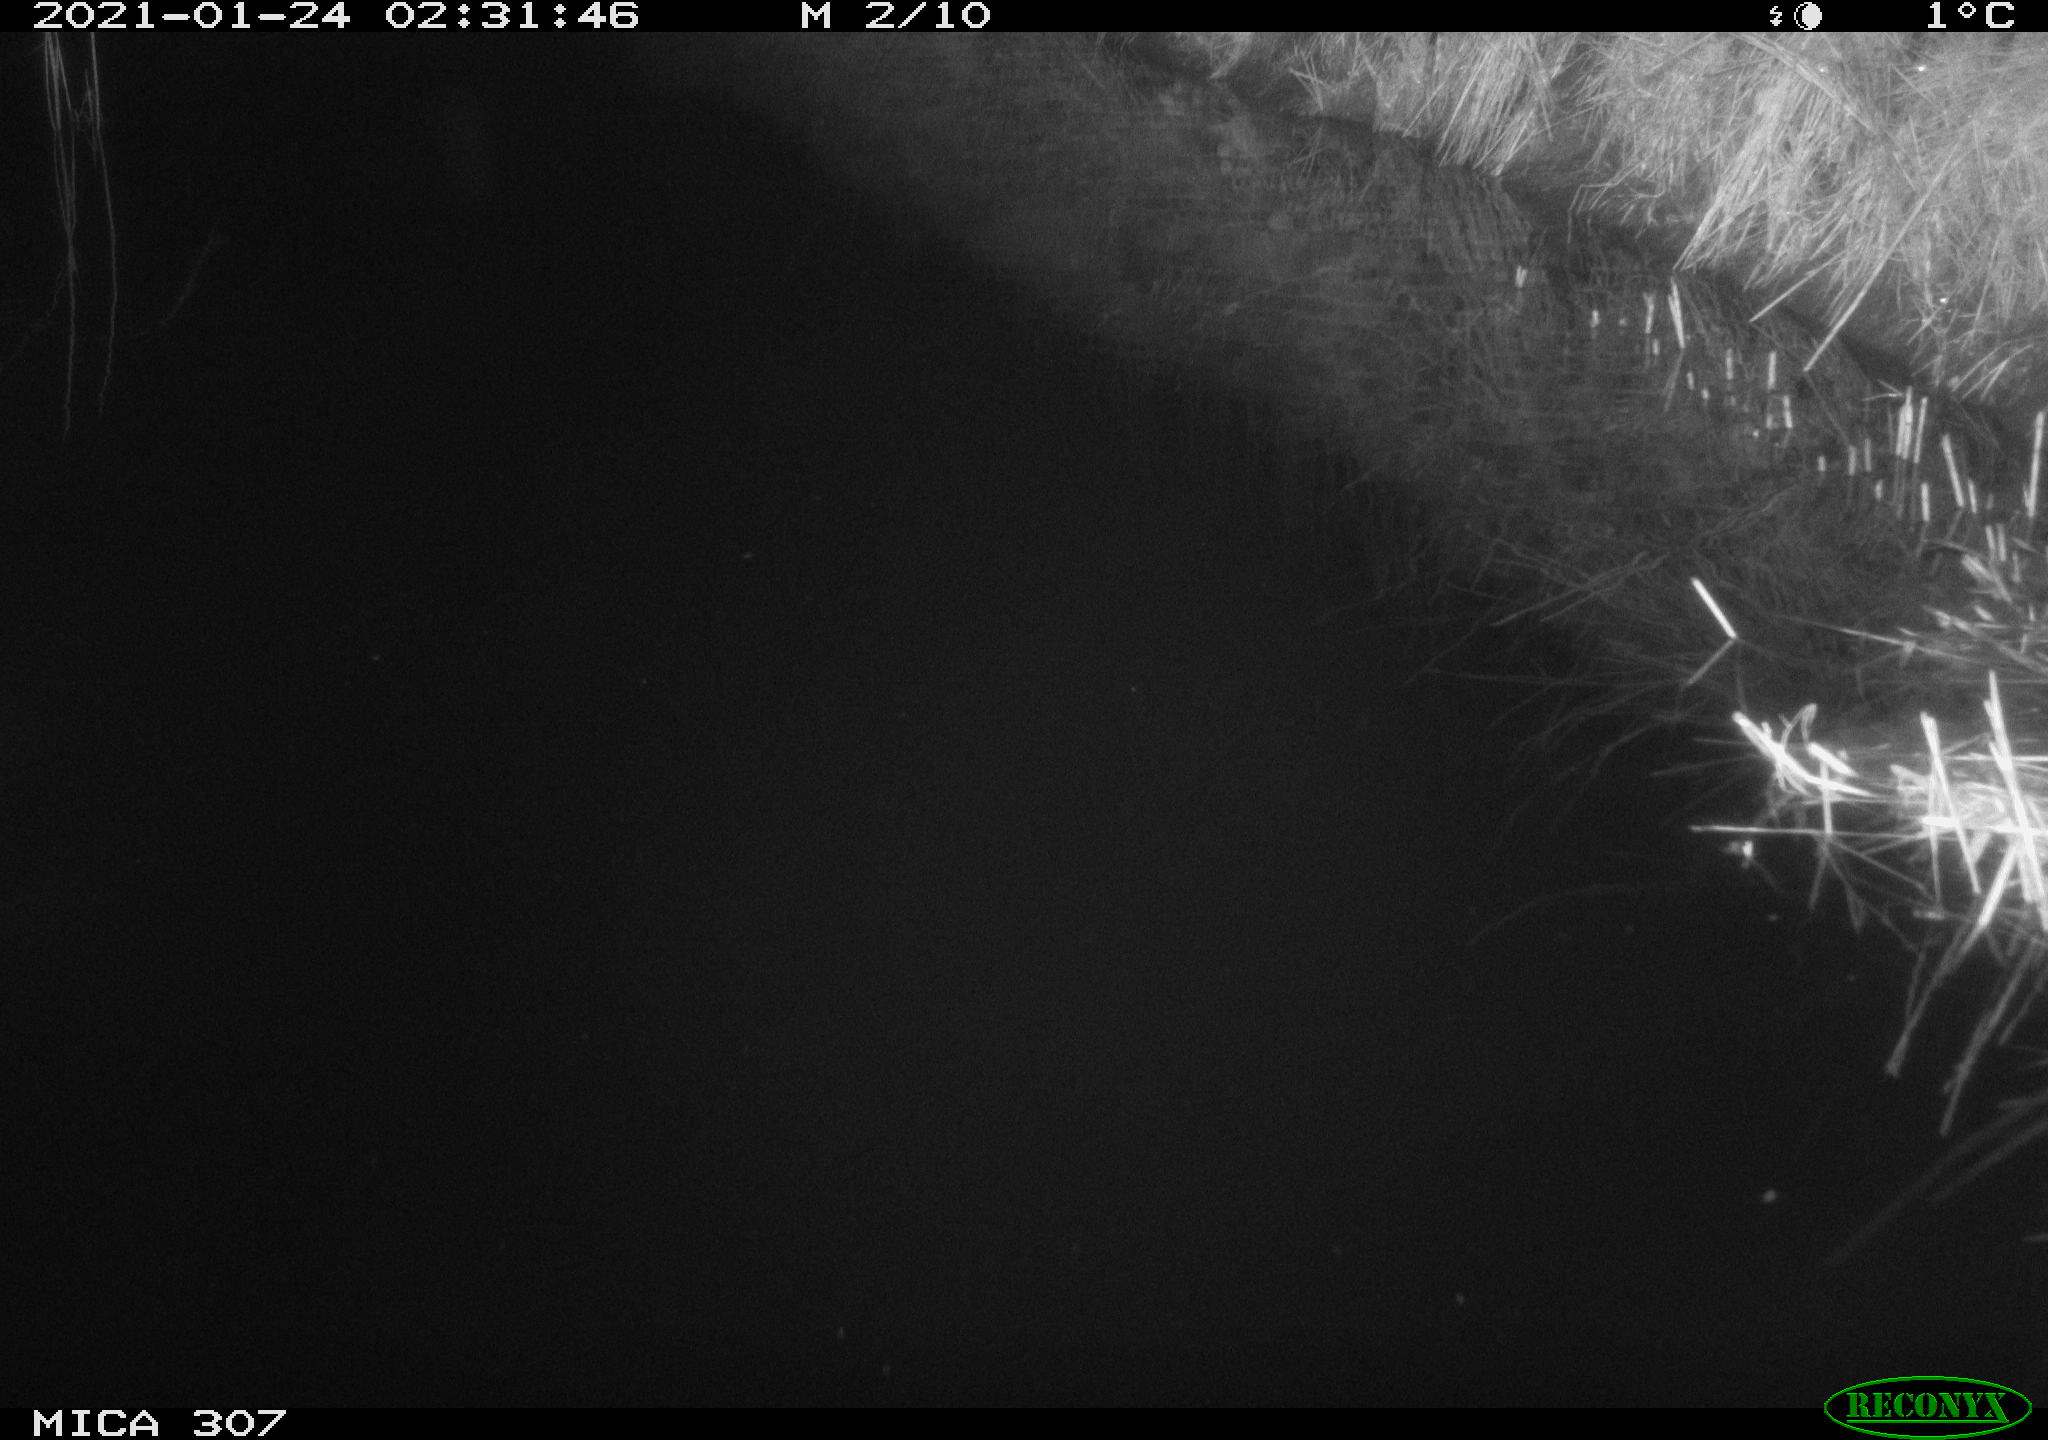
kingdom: Animalia
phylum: Chordata
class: Mammalia
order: Rodentia
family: Muridae
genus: Rattus
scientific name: Rattus norvegicus
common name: Brown rat
